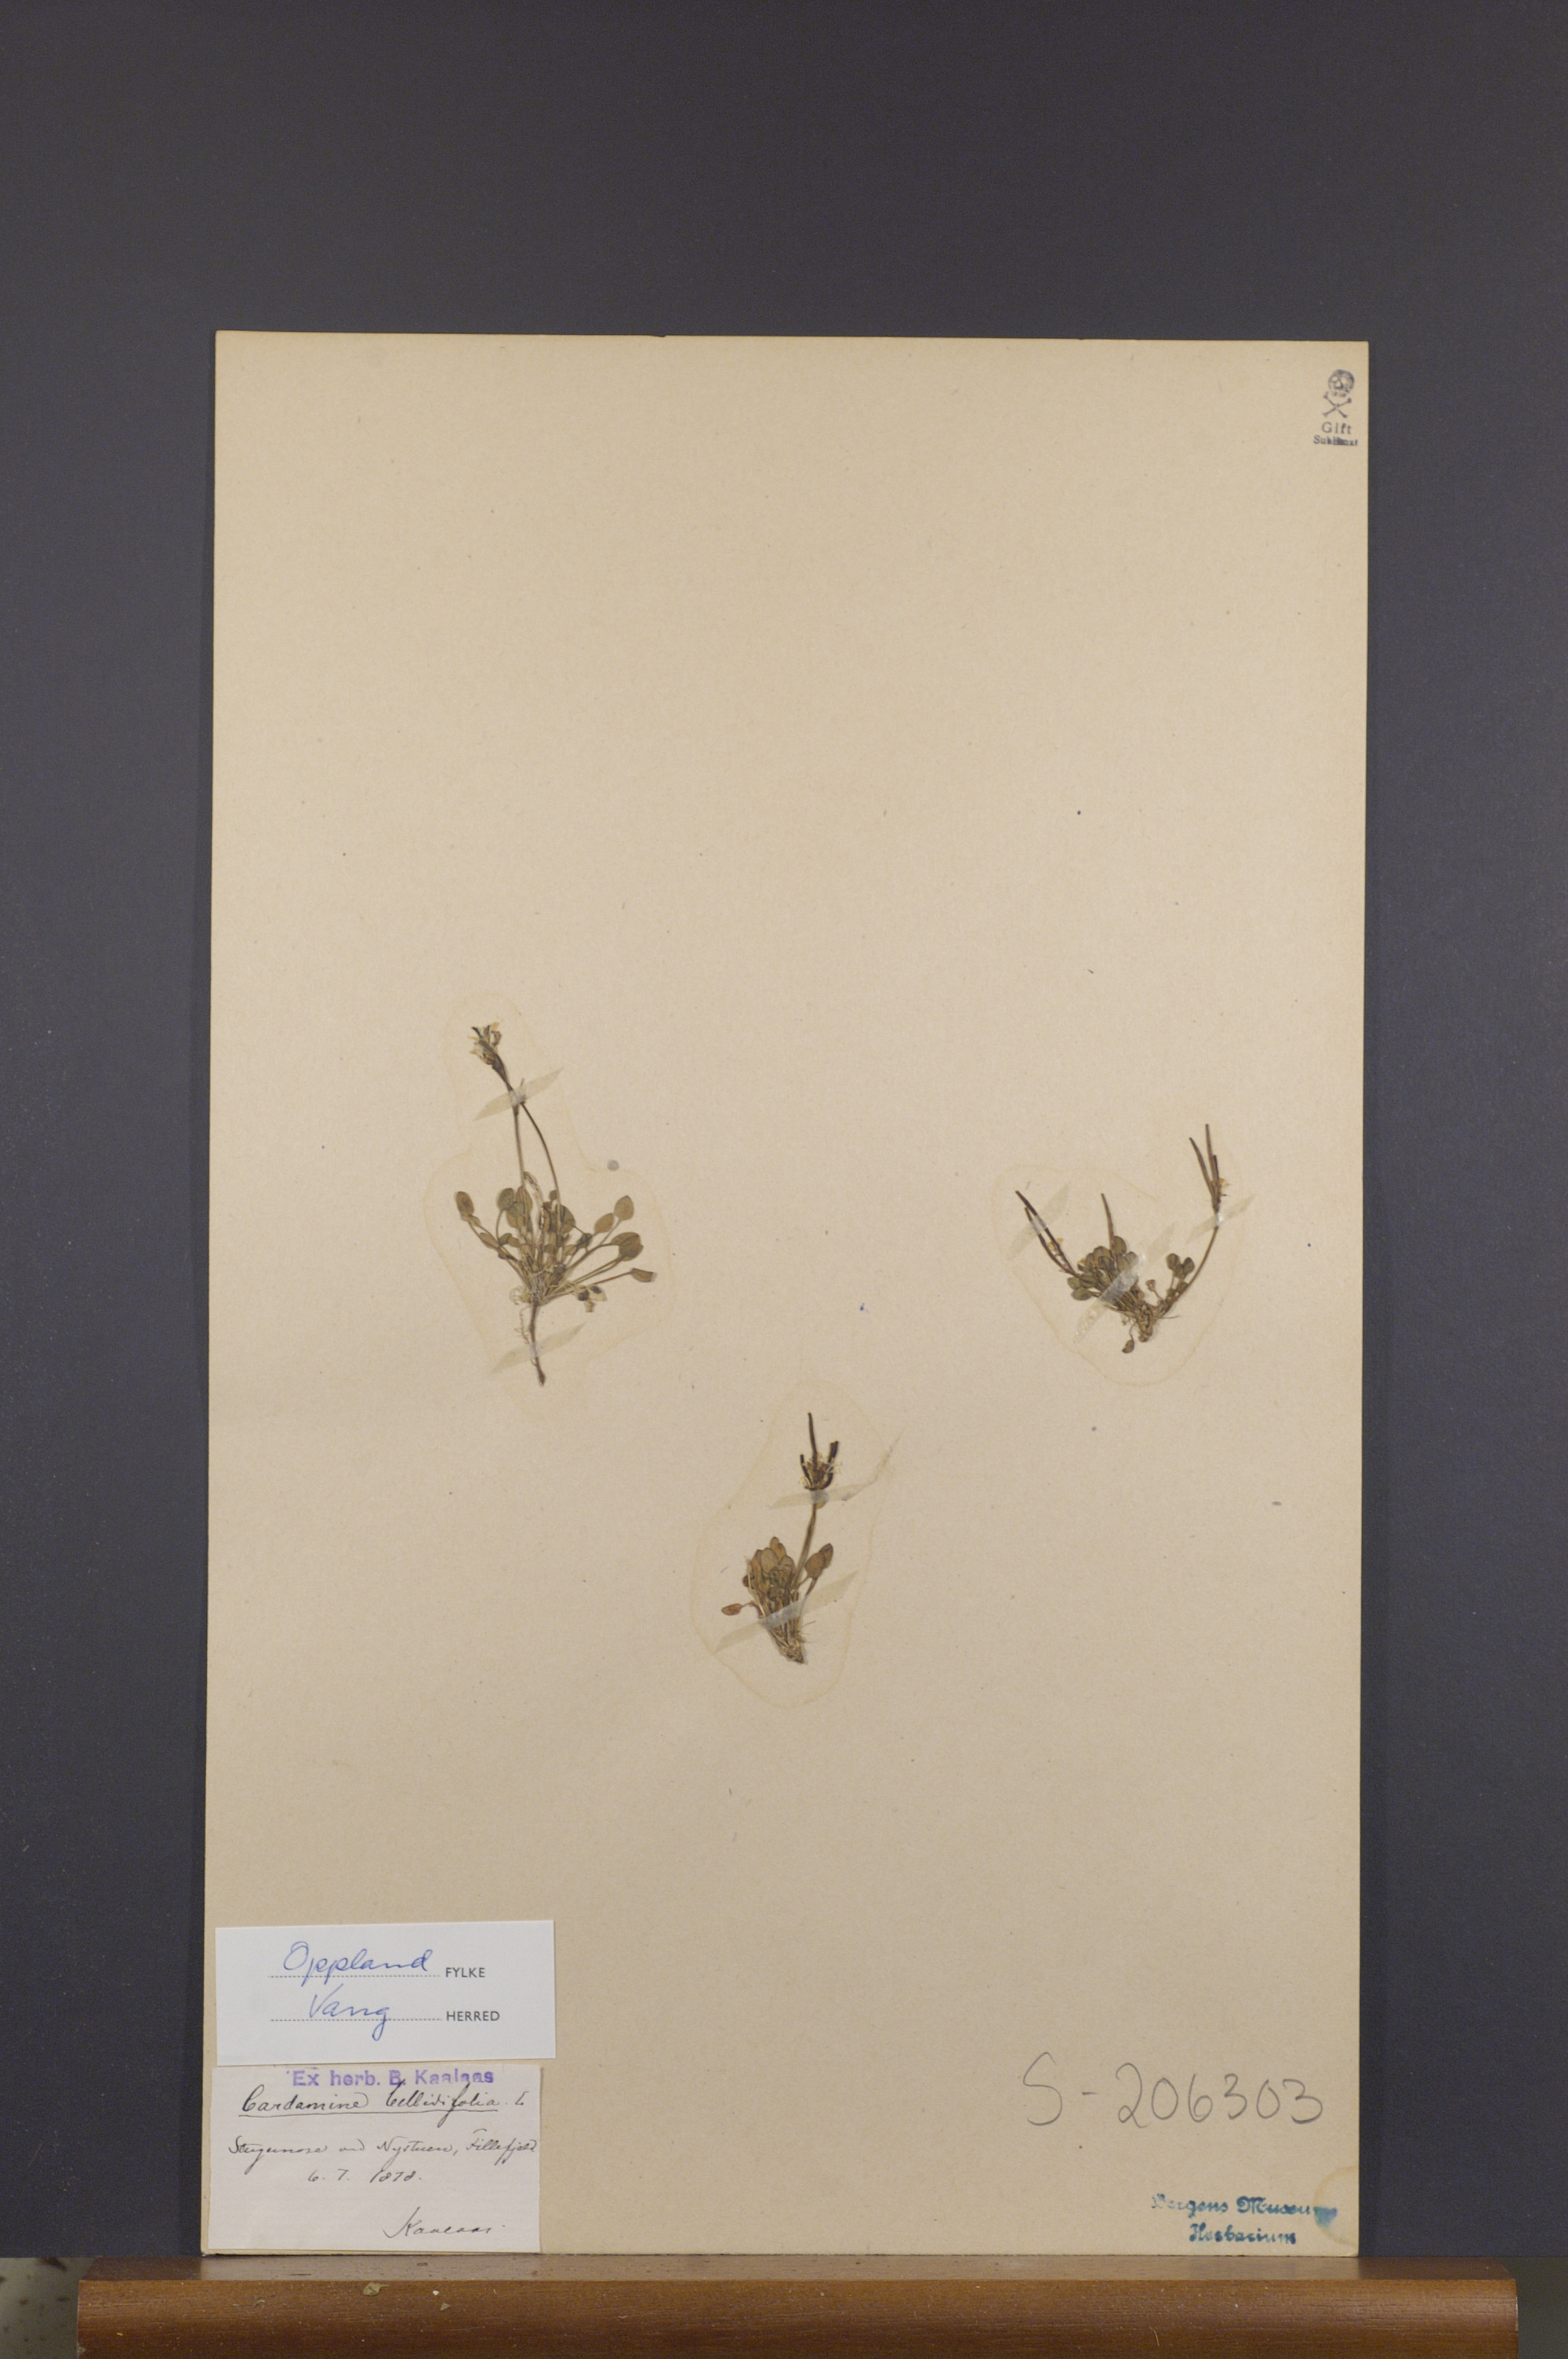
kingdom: Plantae
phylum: Tracheophyta
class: Magnoliopsida
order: Brassicales
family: Brassicaceae
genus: Cardamine
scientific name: Cardamine bellidifolia
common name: Alpine bittercress
